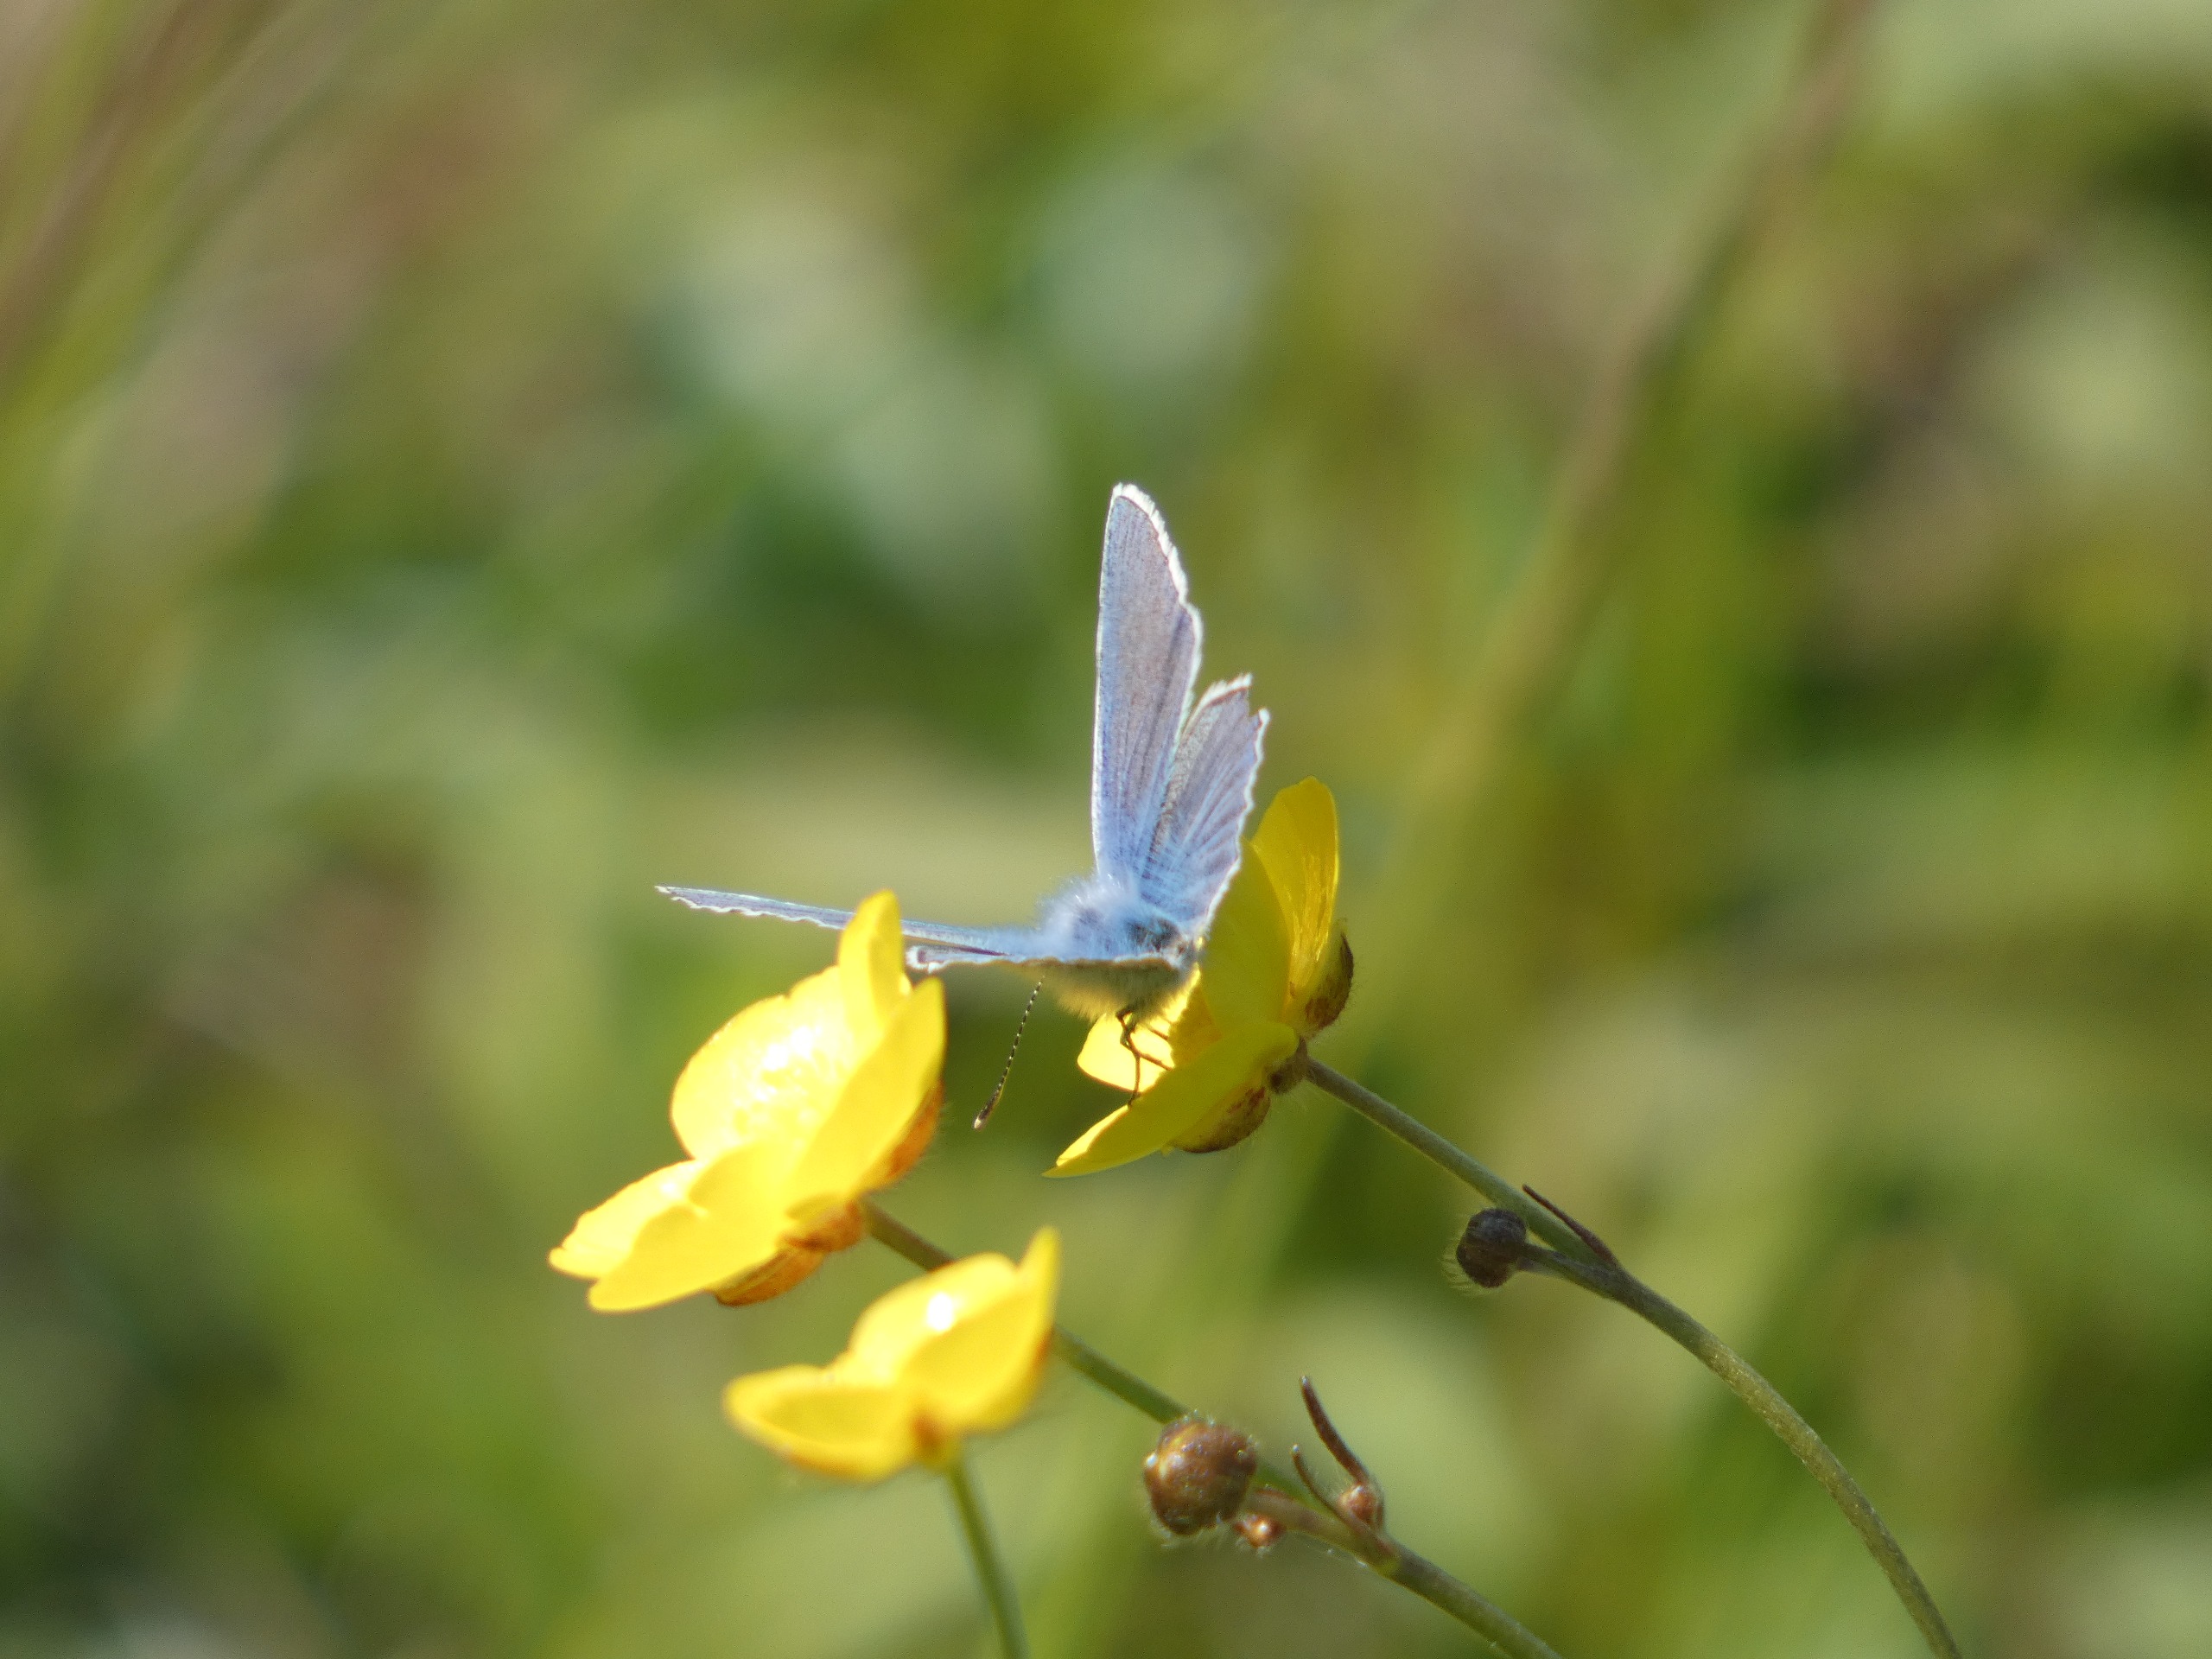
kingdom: Animalia
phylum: Arthropoda
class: Insecta
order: Lepidoptera
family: Lycaenidae
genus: Polyommatus
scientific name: Polyommatus icarus
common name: Almindelig blåfugl
